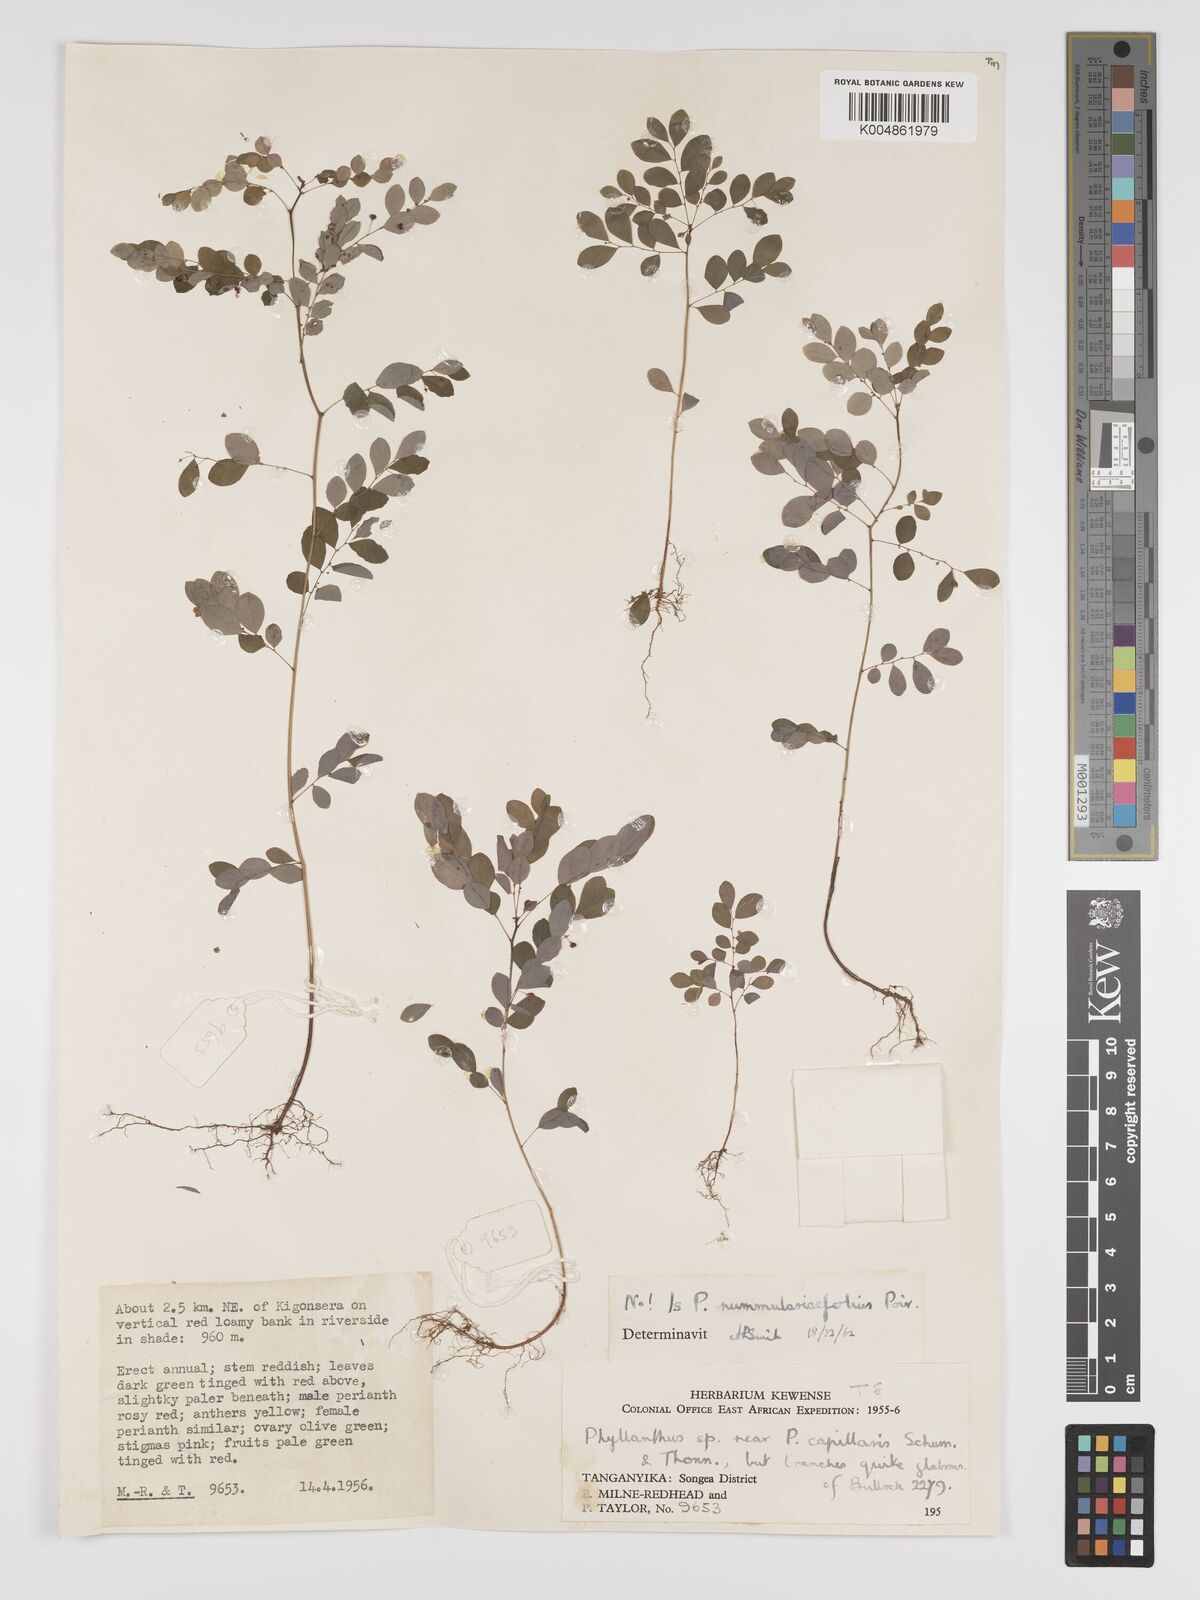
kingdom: Plantae
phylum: Tracheophyta
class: Magnoliopsida
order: Malpighiales
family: Phyllanthaceae
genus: Phyllanthus
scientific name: Phyllanthus nummulariifolius
